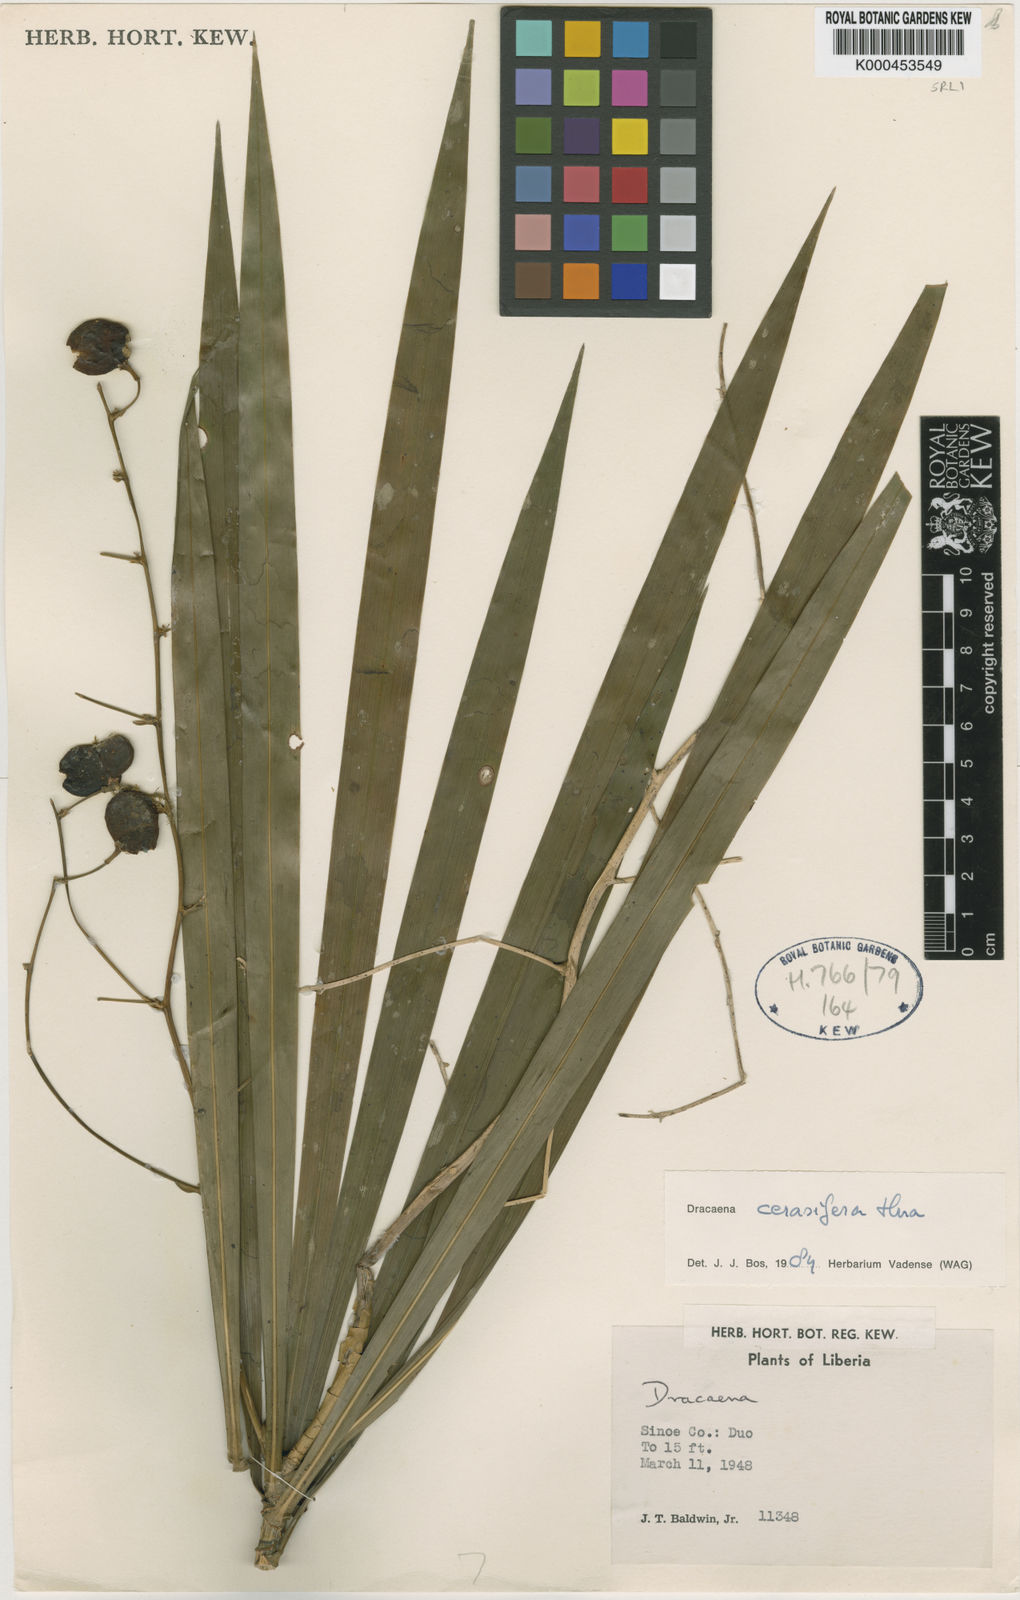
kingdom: Plantae
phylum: Tracheophyta
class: Liliopsida
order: Asparagales
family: Asparagaceae
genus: Dracaena
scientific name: Dracaena cerasifera
